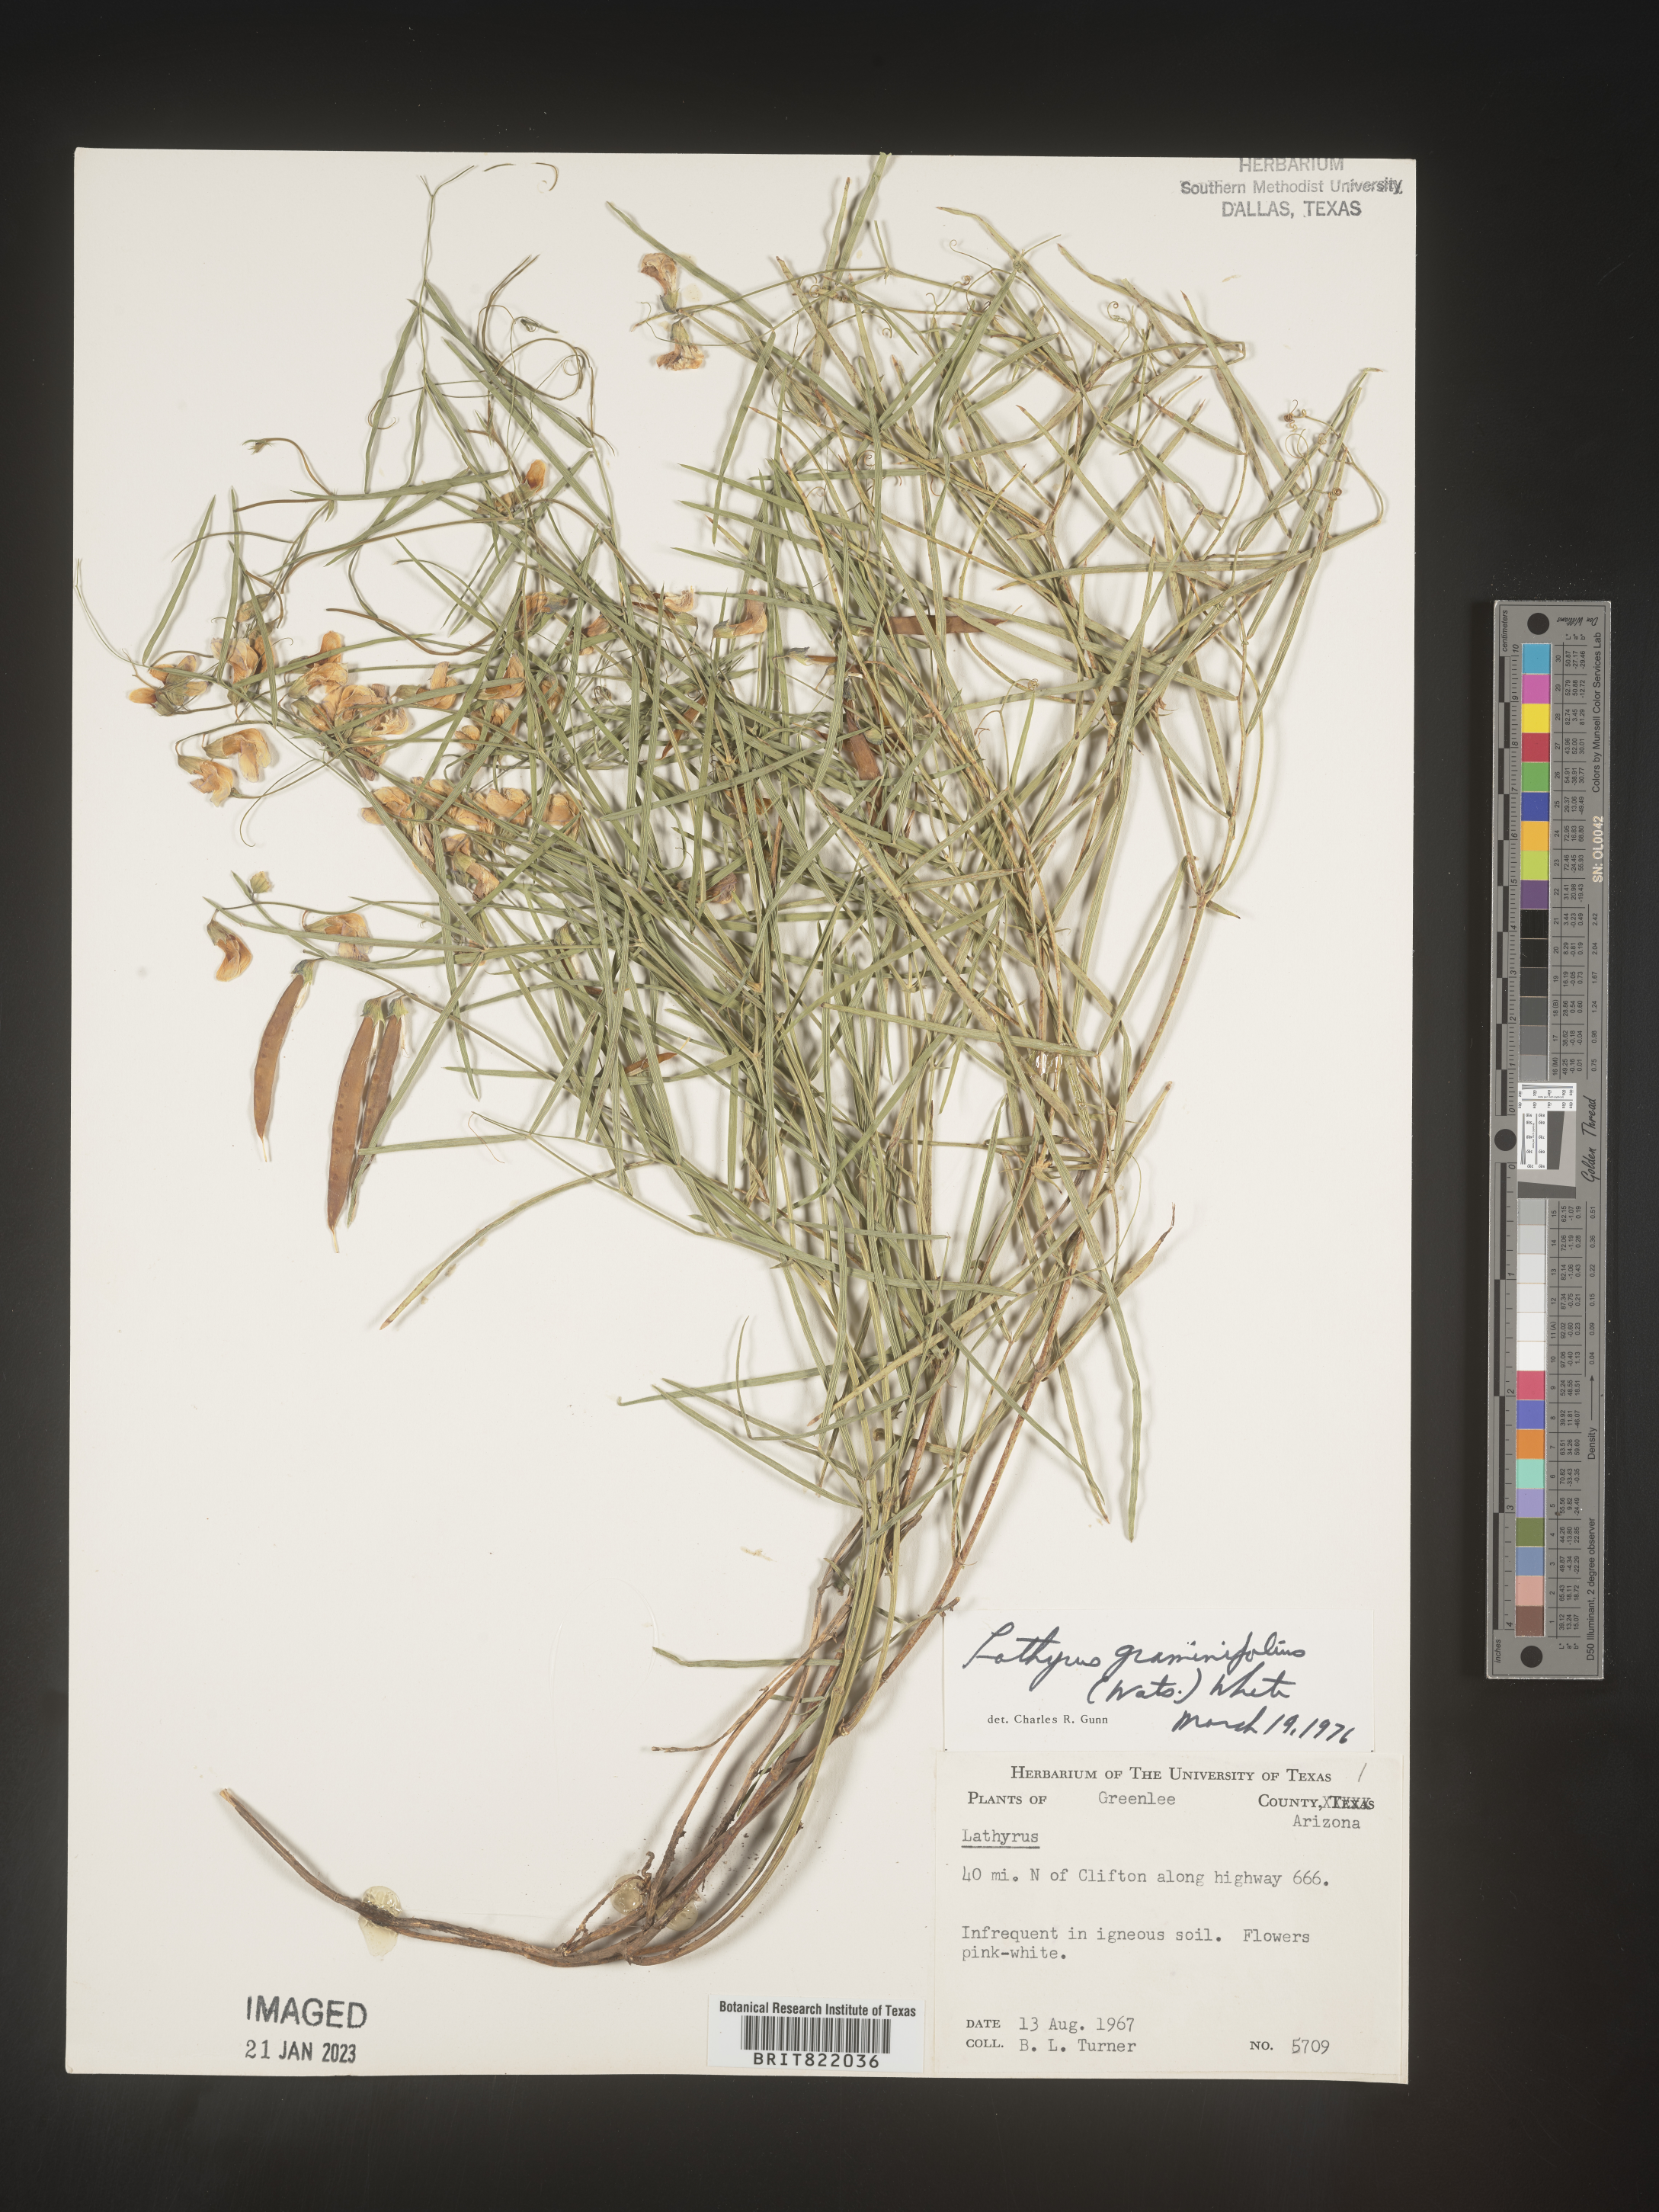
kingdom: Plantae
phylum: Tracheophyta
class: Magnoliopsida
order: Fabales
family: Fabaceae
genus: Lathyrus
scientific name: Lathyrus
